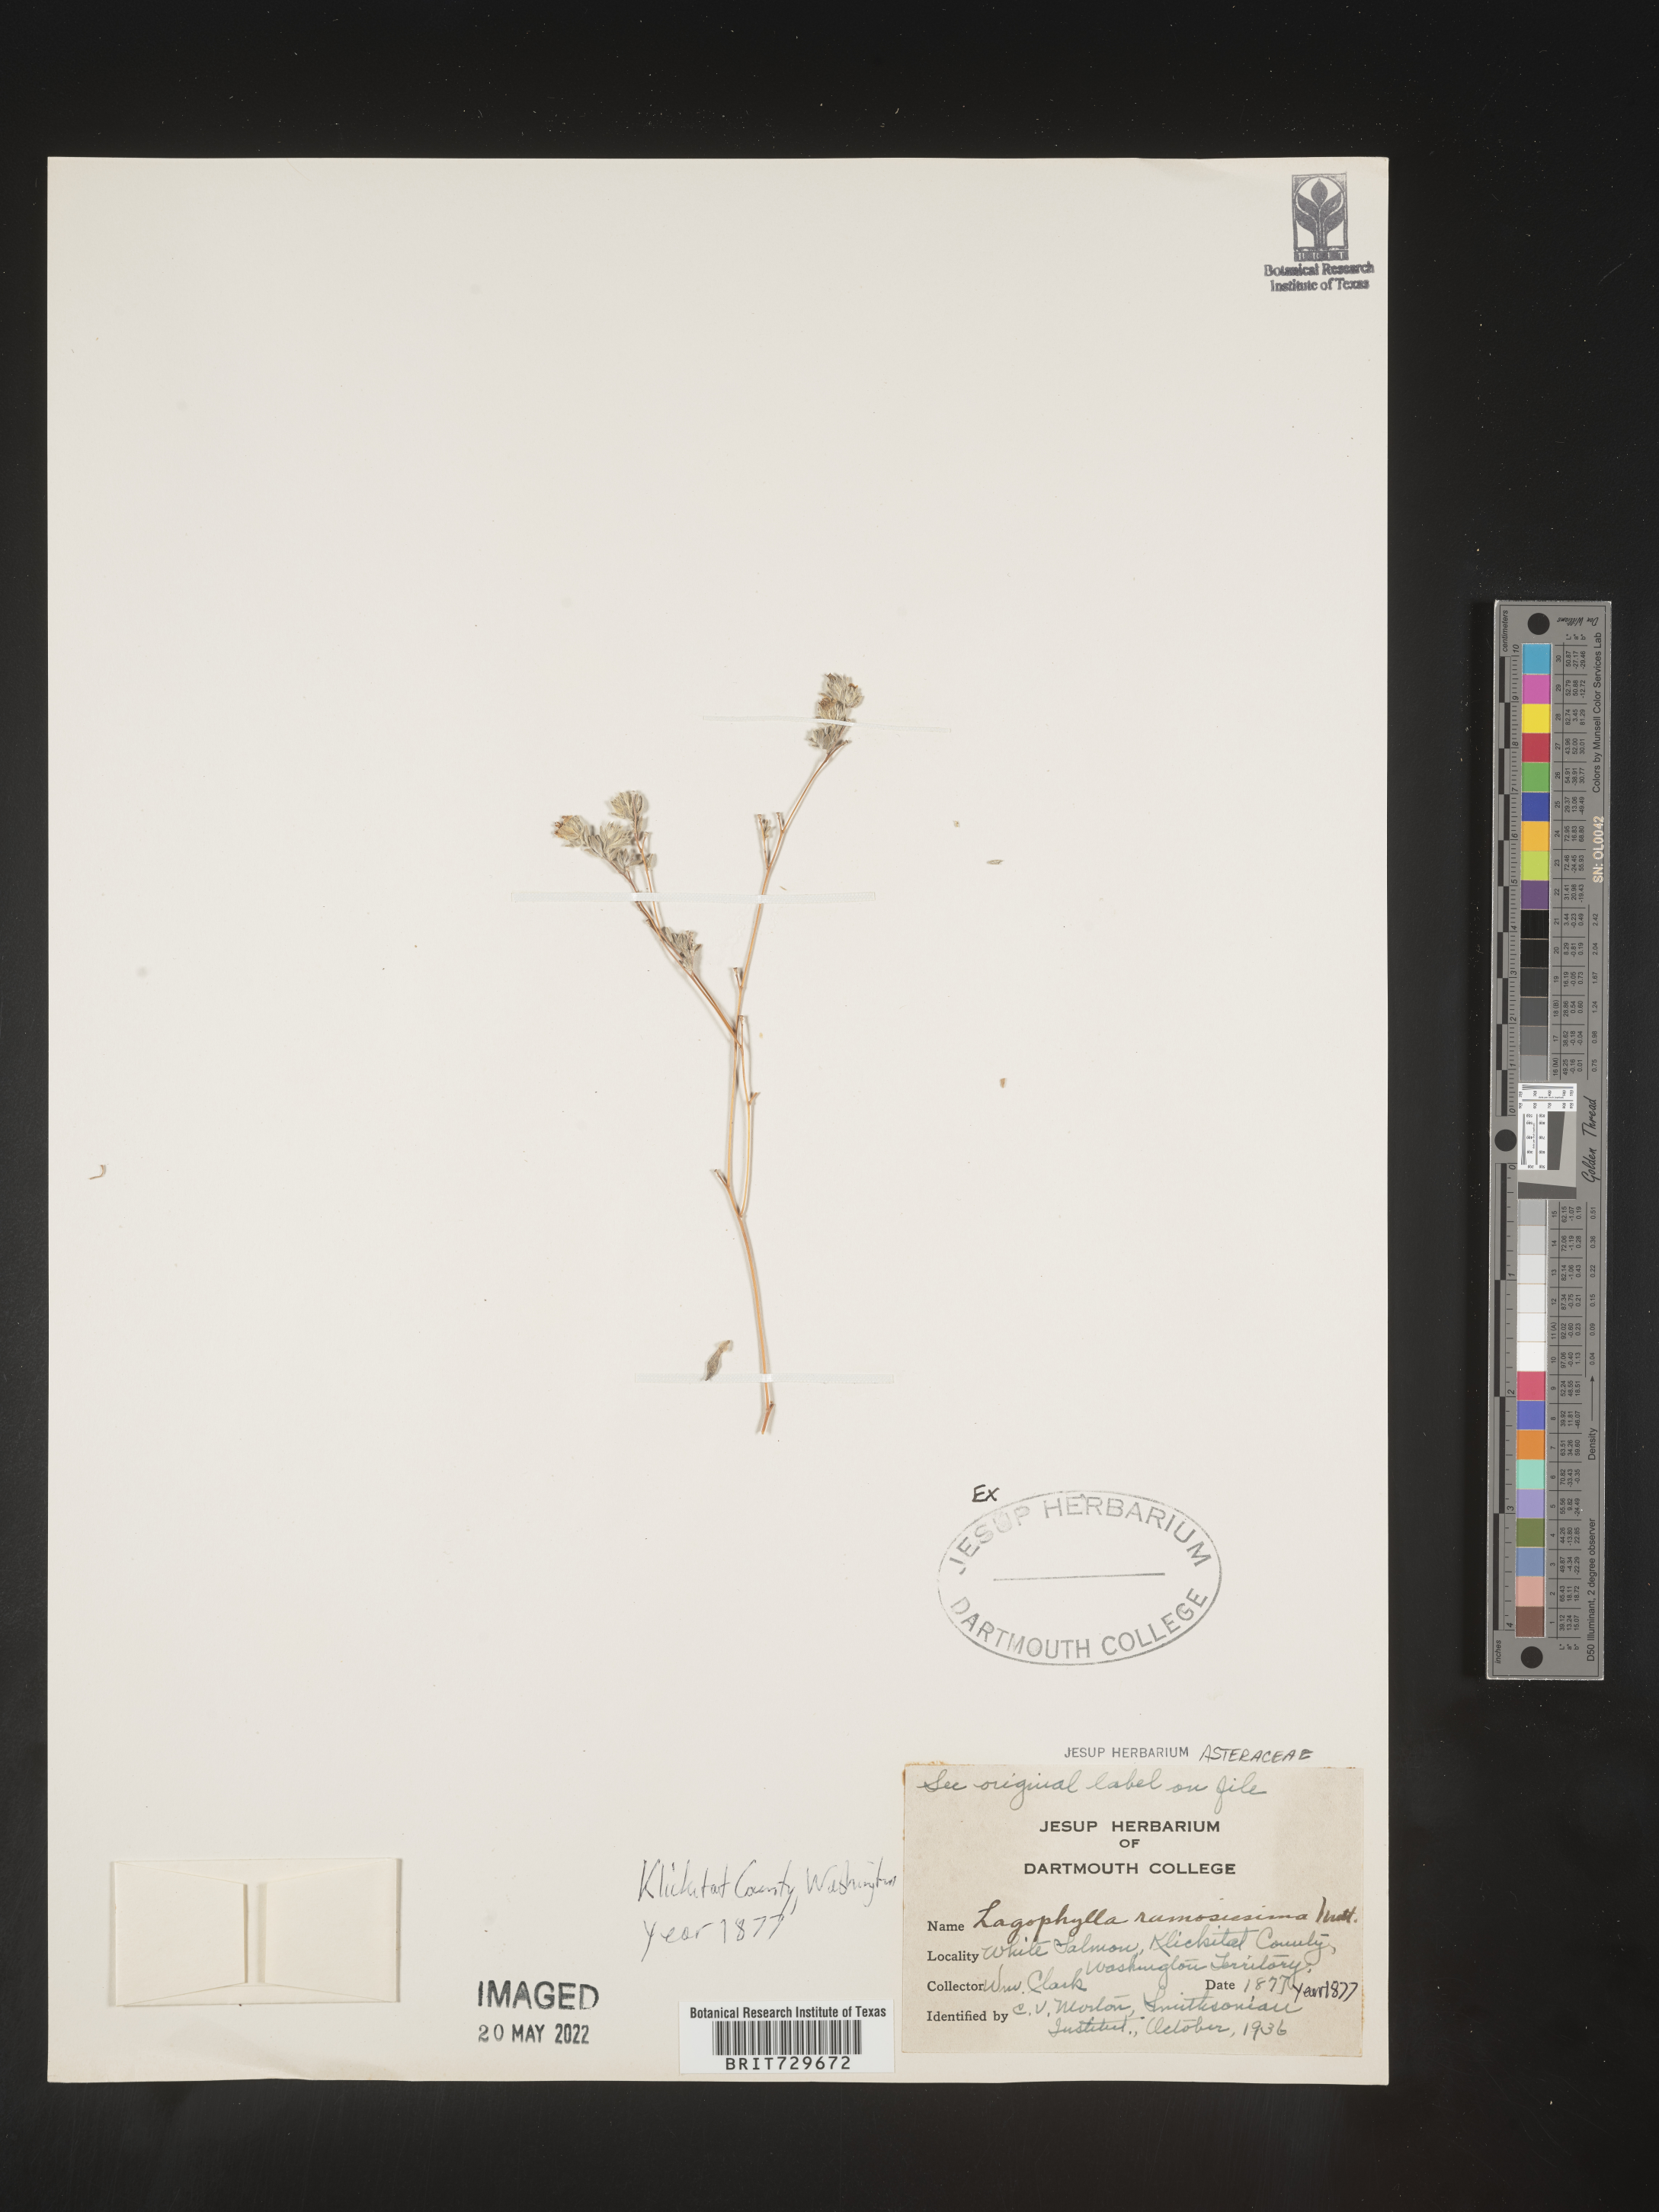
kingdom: Plantae
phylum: Tracheophyta
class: Magnoliopsida
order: Asterales
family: Asteraceae
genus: Lagophylla
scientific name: Lagophylla
